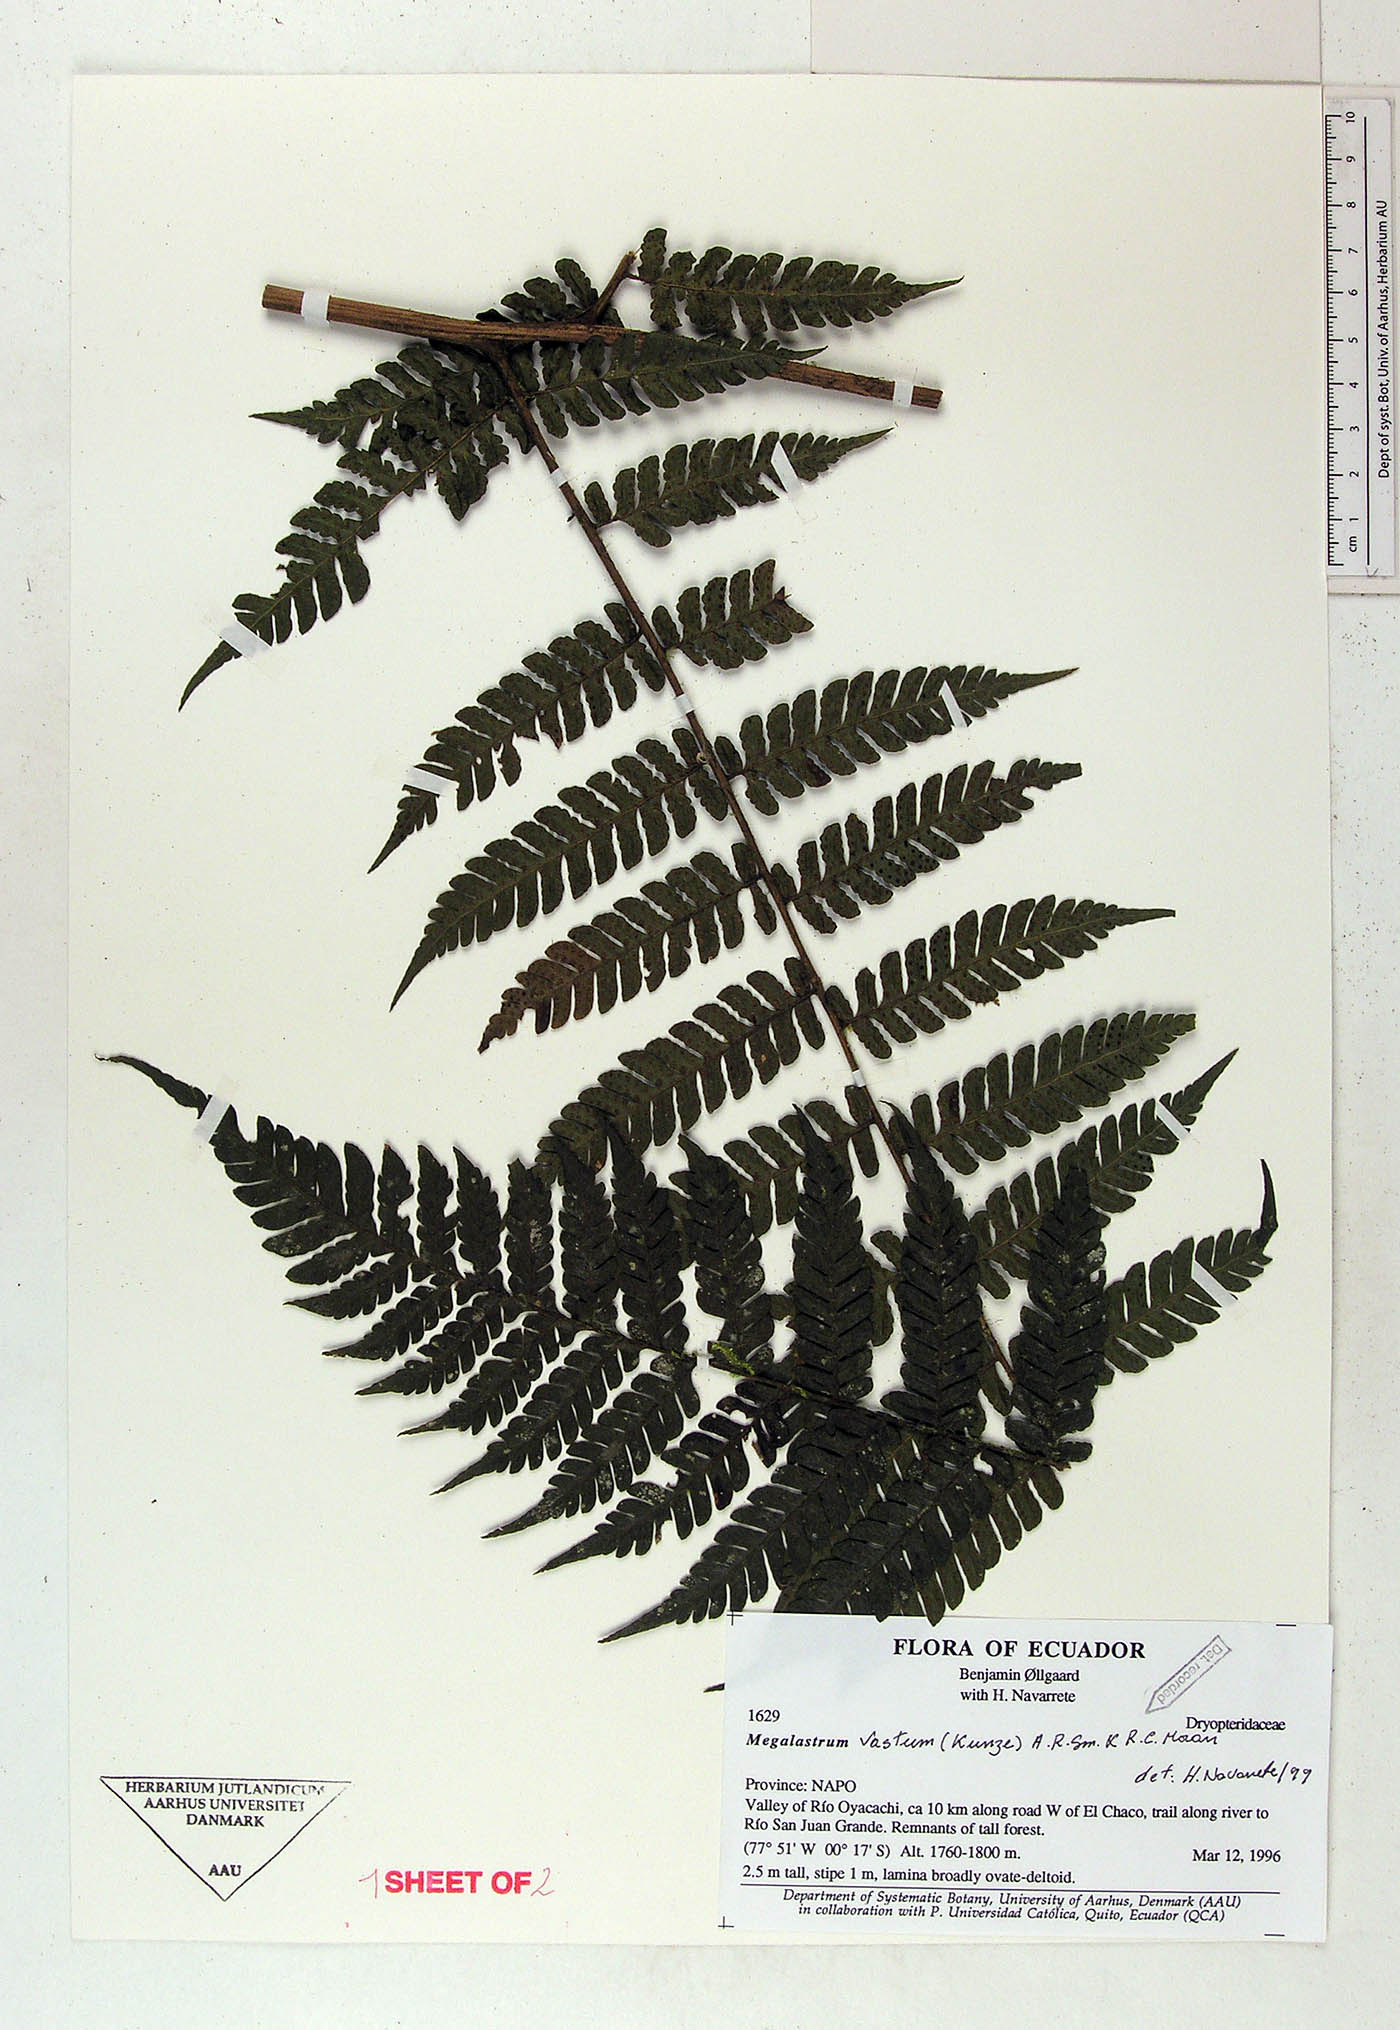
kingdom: Plantae
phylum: Tracheophyta
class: Polypodiopsida
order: Polypodiales
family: Dryopteridaceae
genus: Megalastrum
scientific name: Megalastrum pubirhachis
